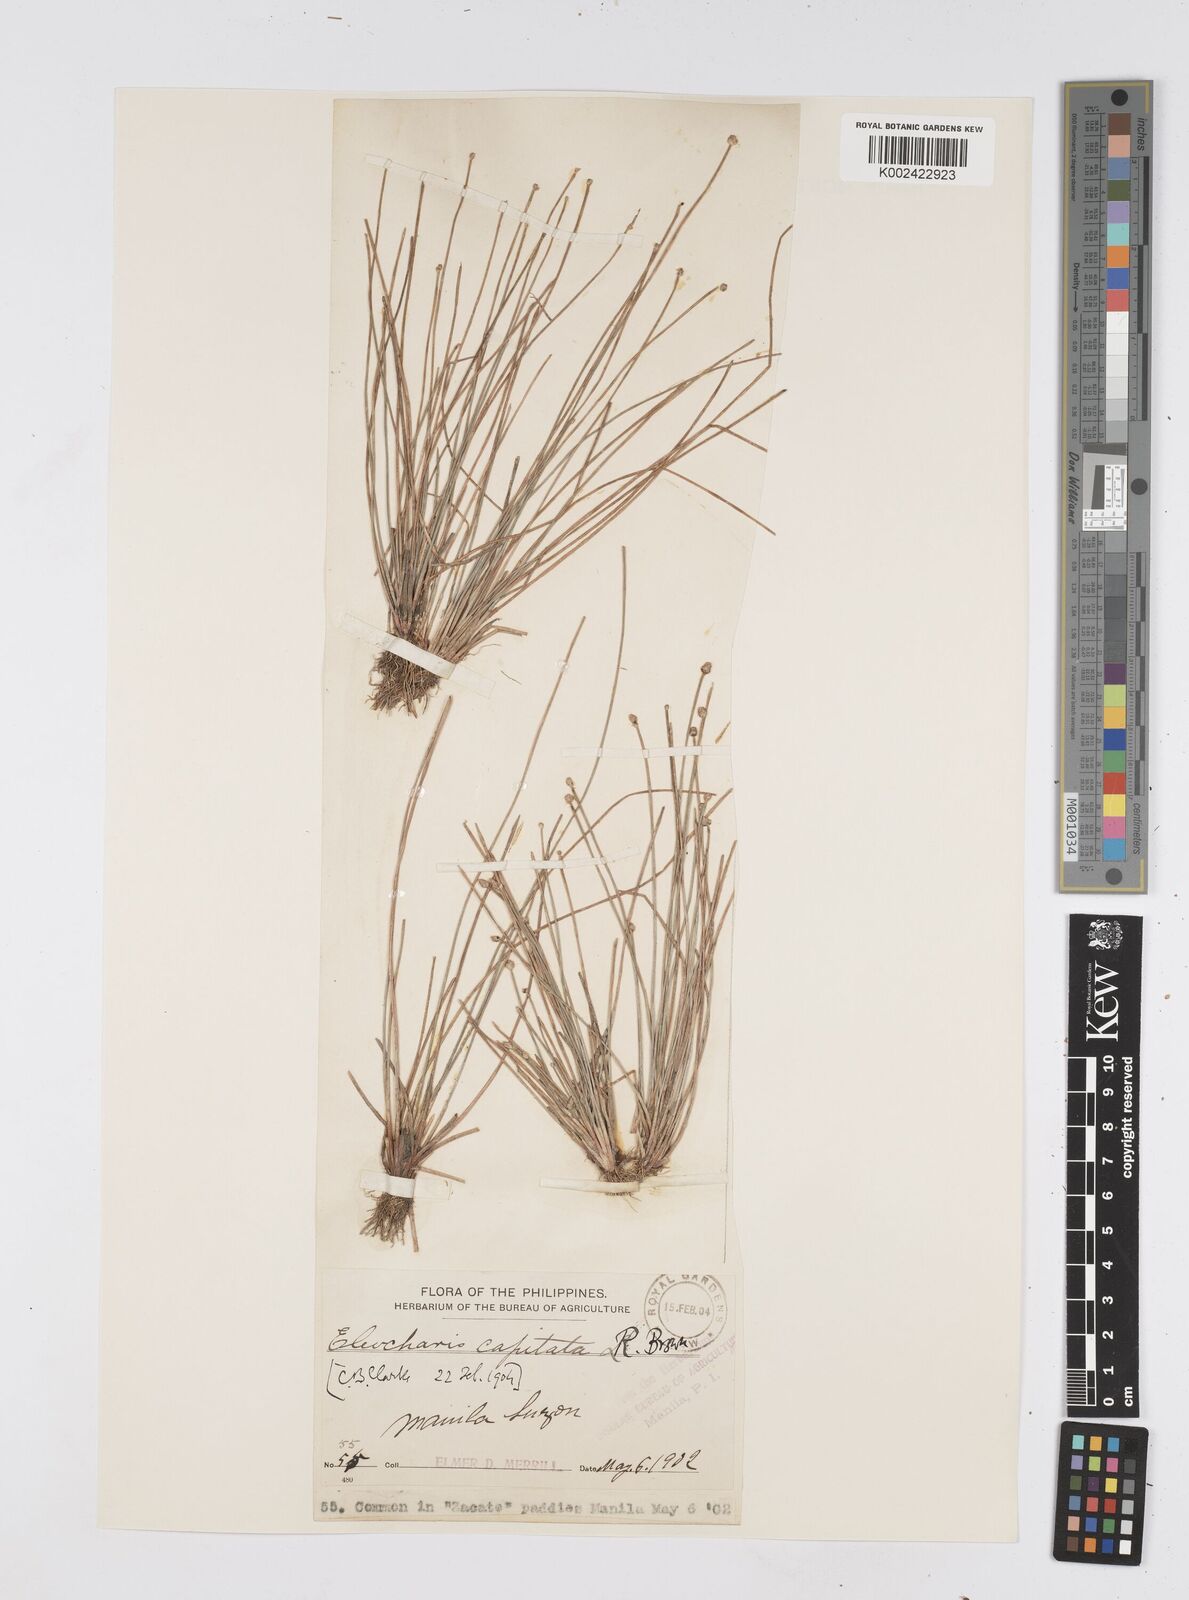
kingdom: Plantae
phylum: Tracheophyta
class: Liliopsida
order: Poales
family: Cyperaceae
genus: Eleocharis
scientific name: Eleocharis geniculata
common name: Canada spikesedge
